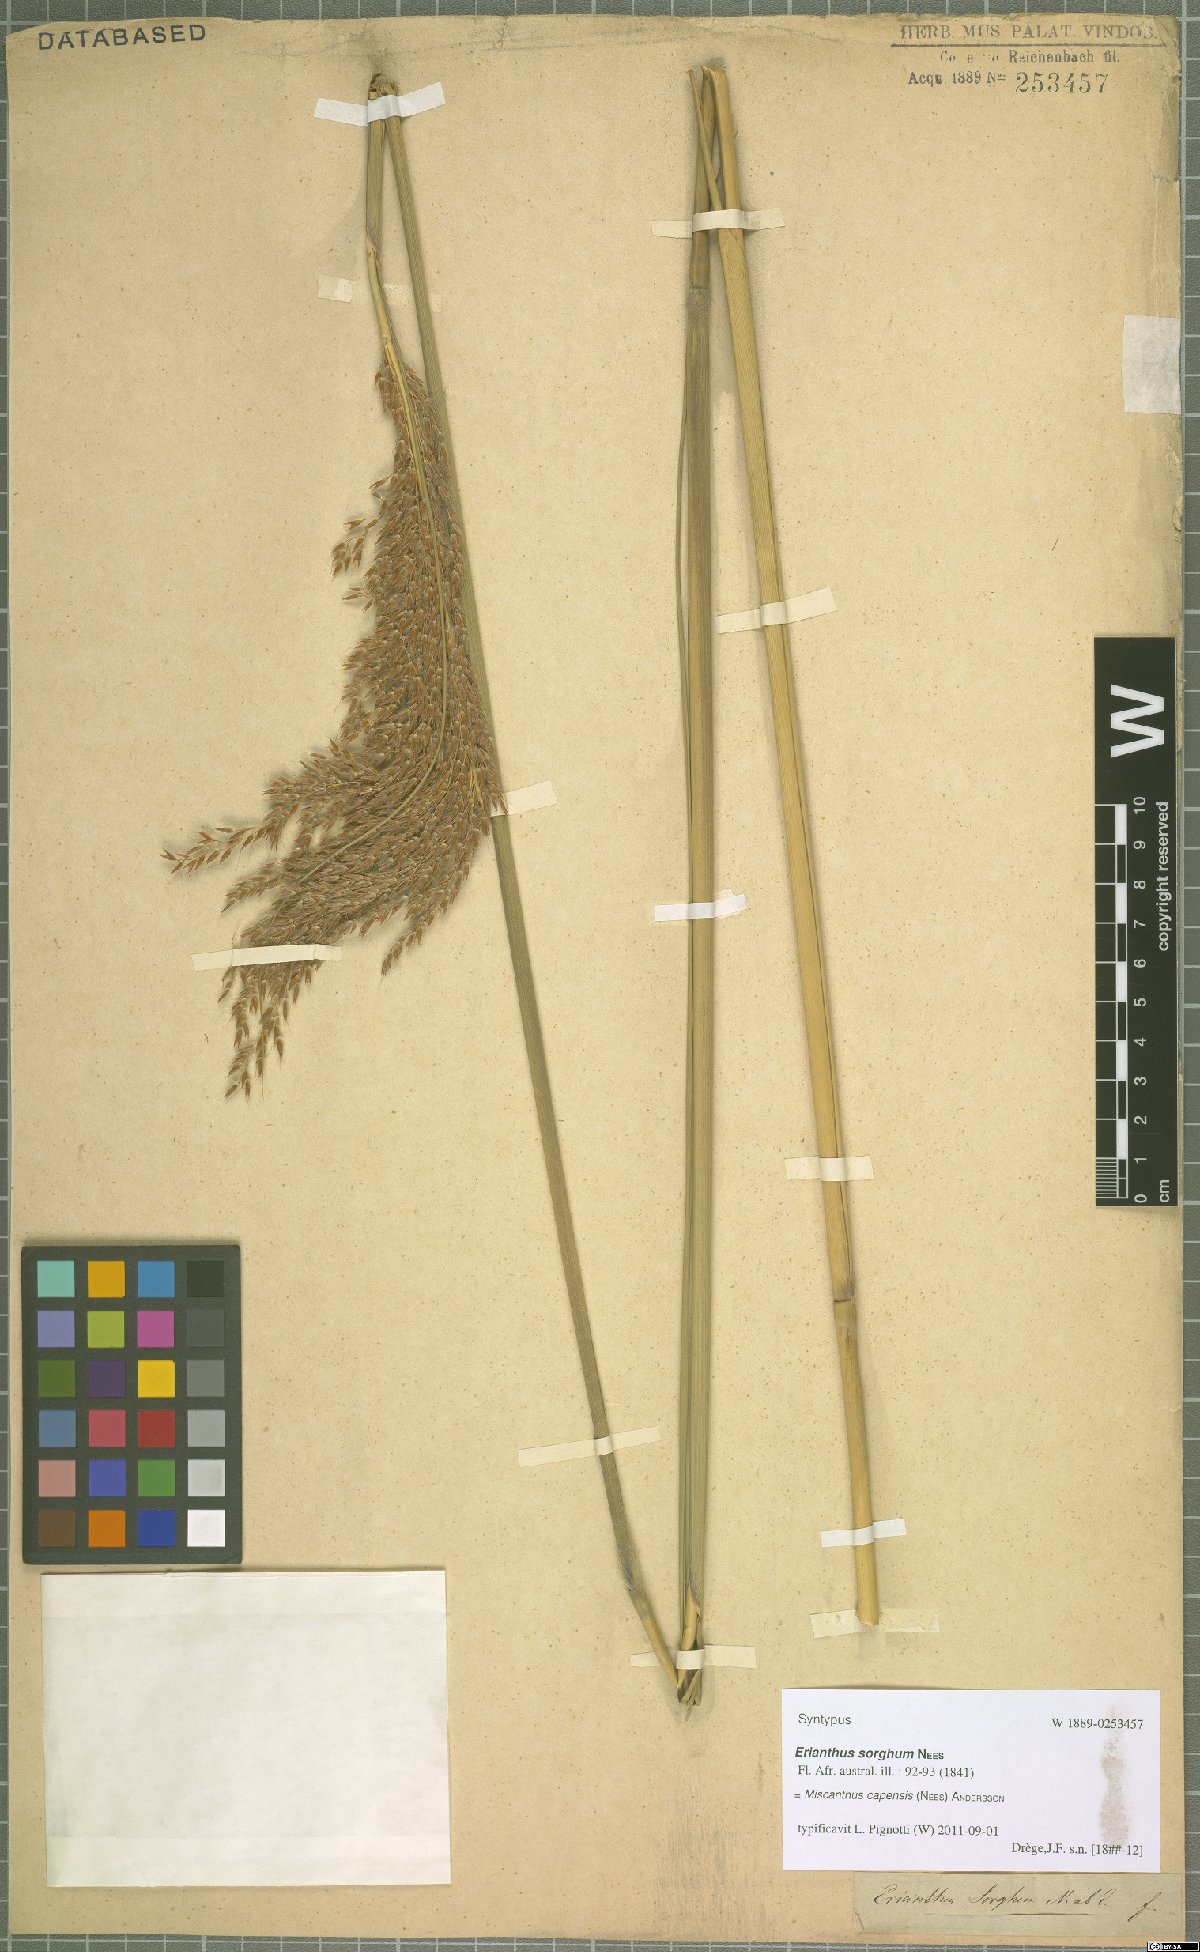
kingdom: Plantae
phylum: Tracheophyta
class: Liliopsida
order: Poales
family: Poaceae
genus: Miscanthus
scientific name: Miscanthus ecklonii
